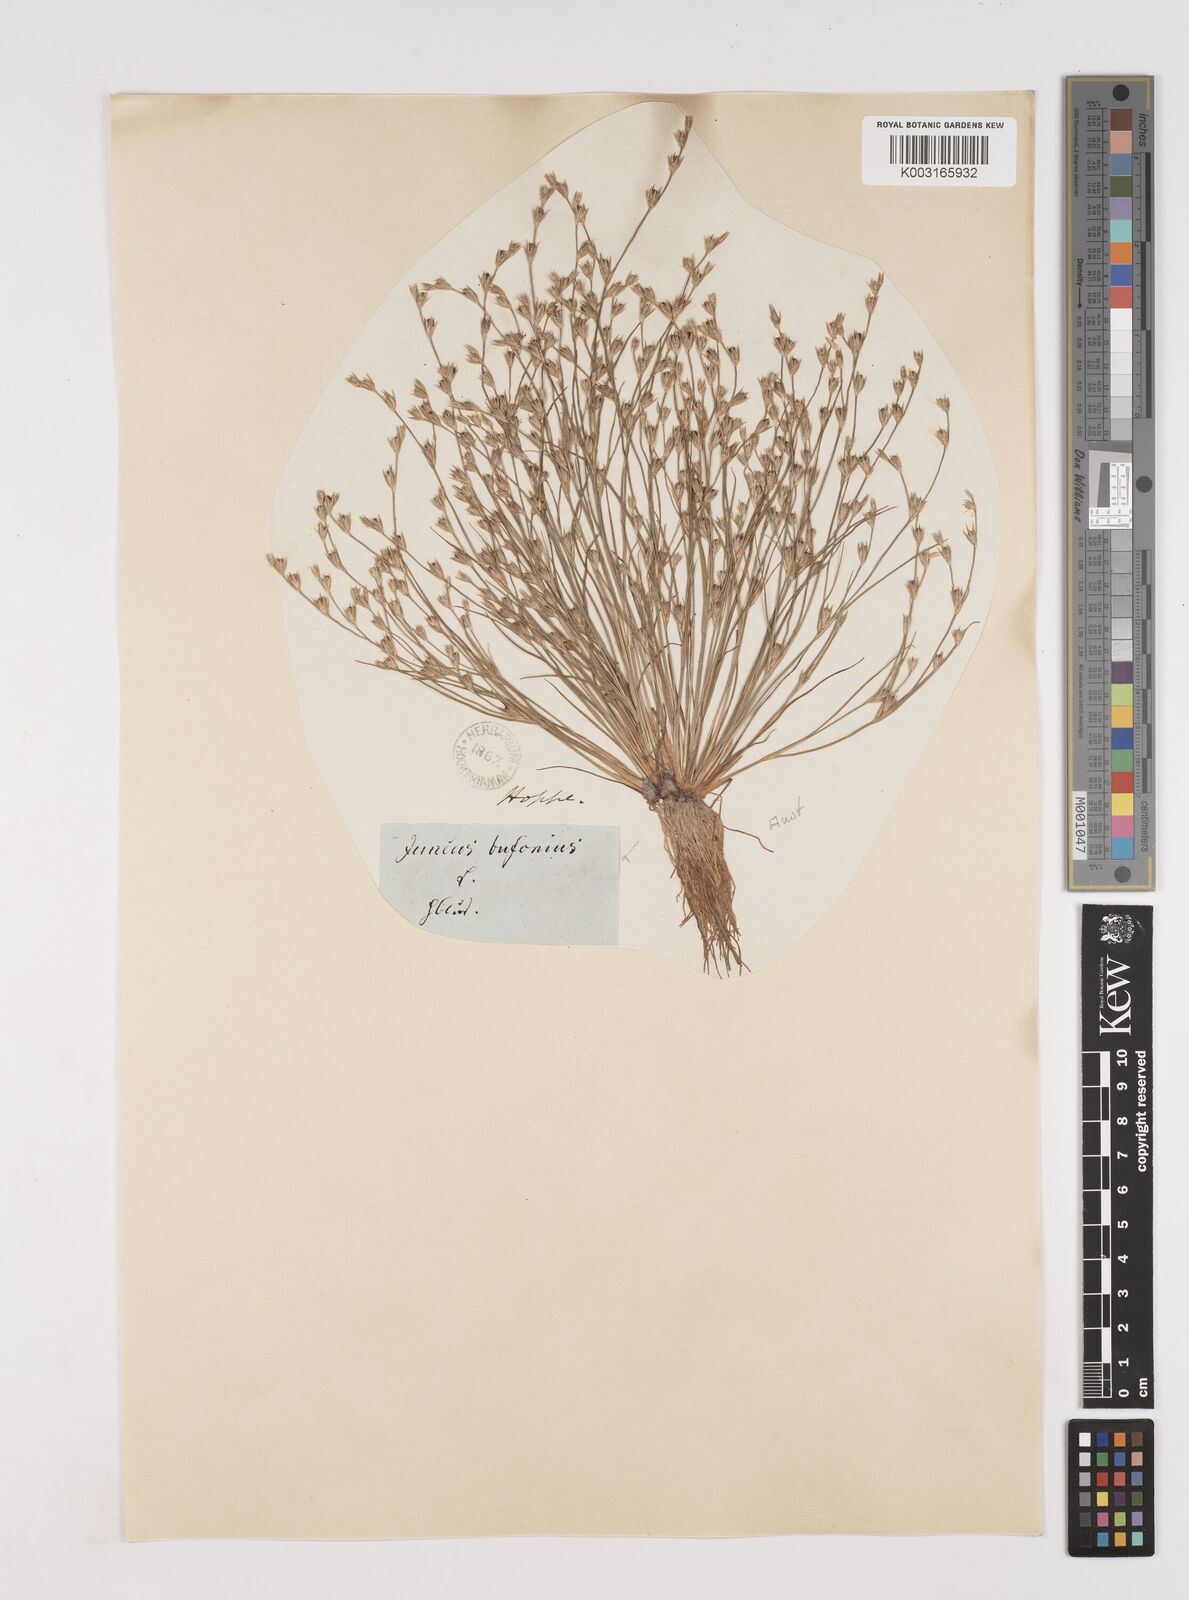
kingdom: Plantae
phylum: Tracheophyta
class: Liliopsida
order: Poales
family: Juncaceae
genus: Juncus
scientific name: Juncus bufonius
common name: Toad rush
